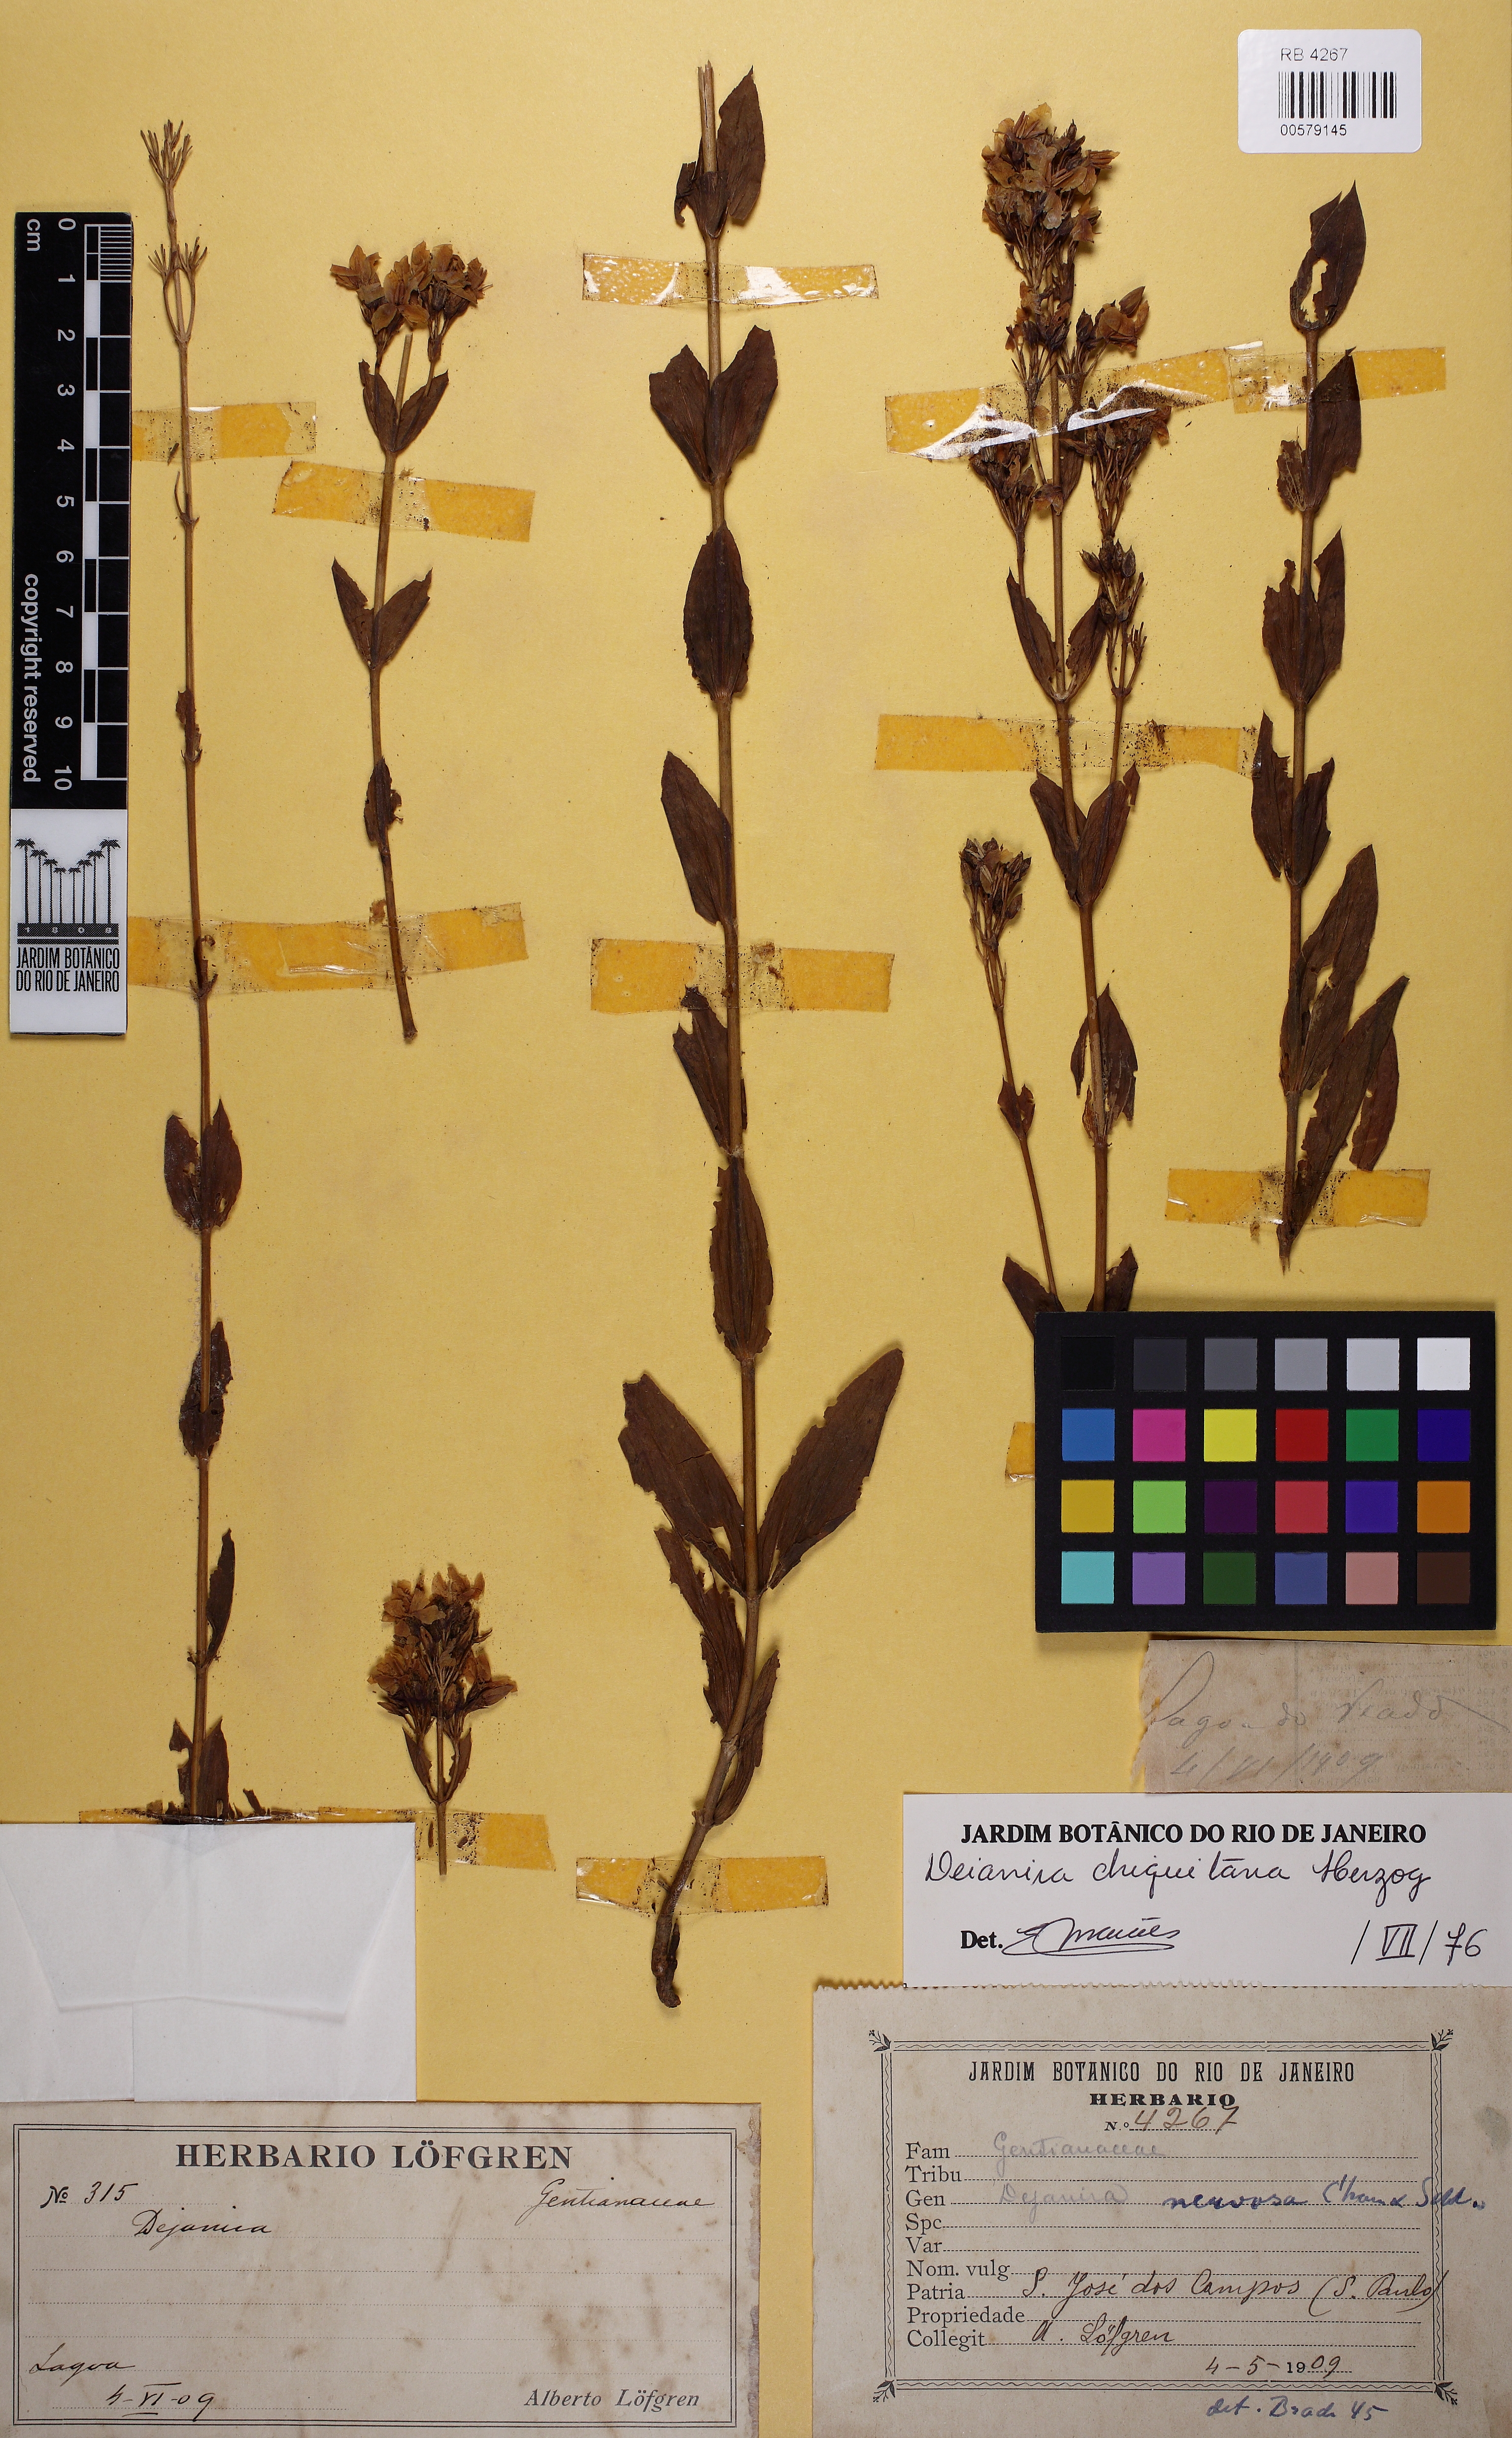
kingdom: Plantae
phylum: Tracheophyta
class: Magnoliopsida
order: Gentianales
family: Gentianaceae
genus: Deianira
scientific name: Deianira chiquitana
